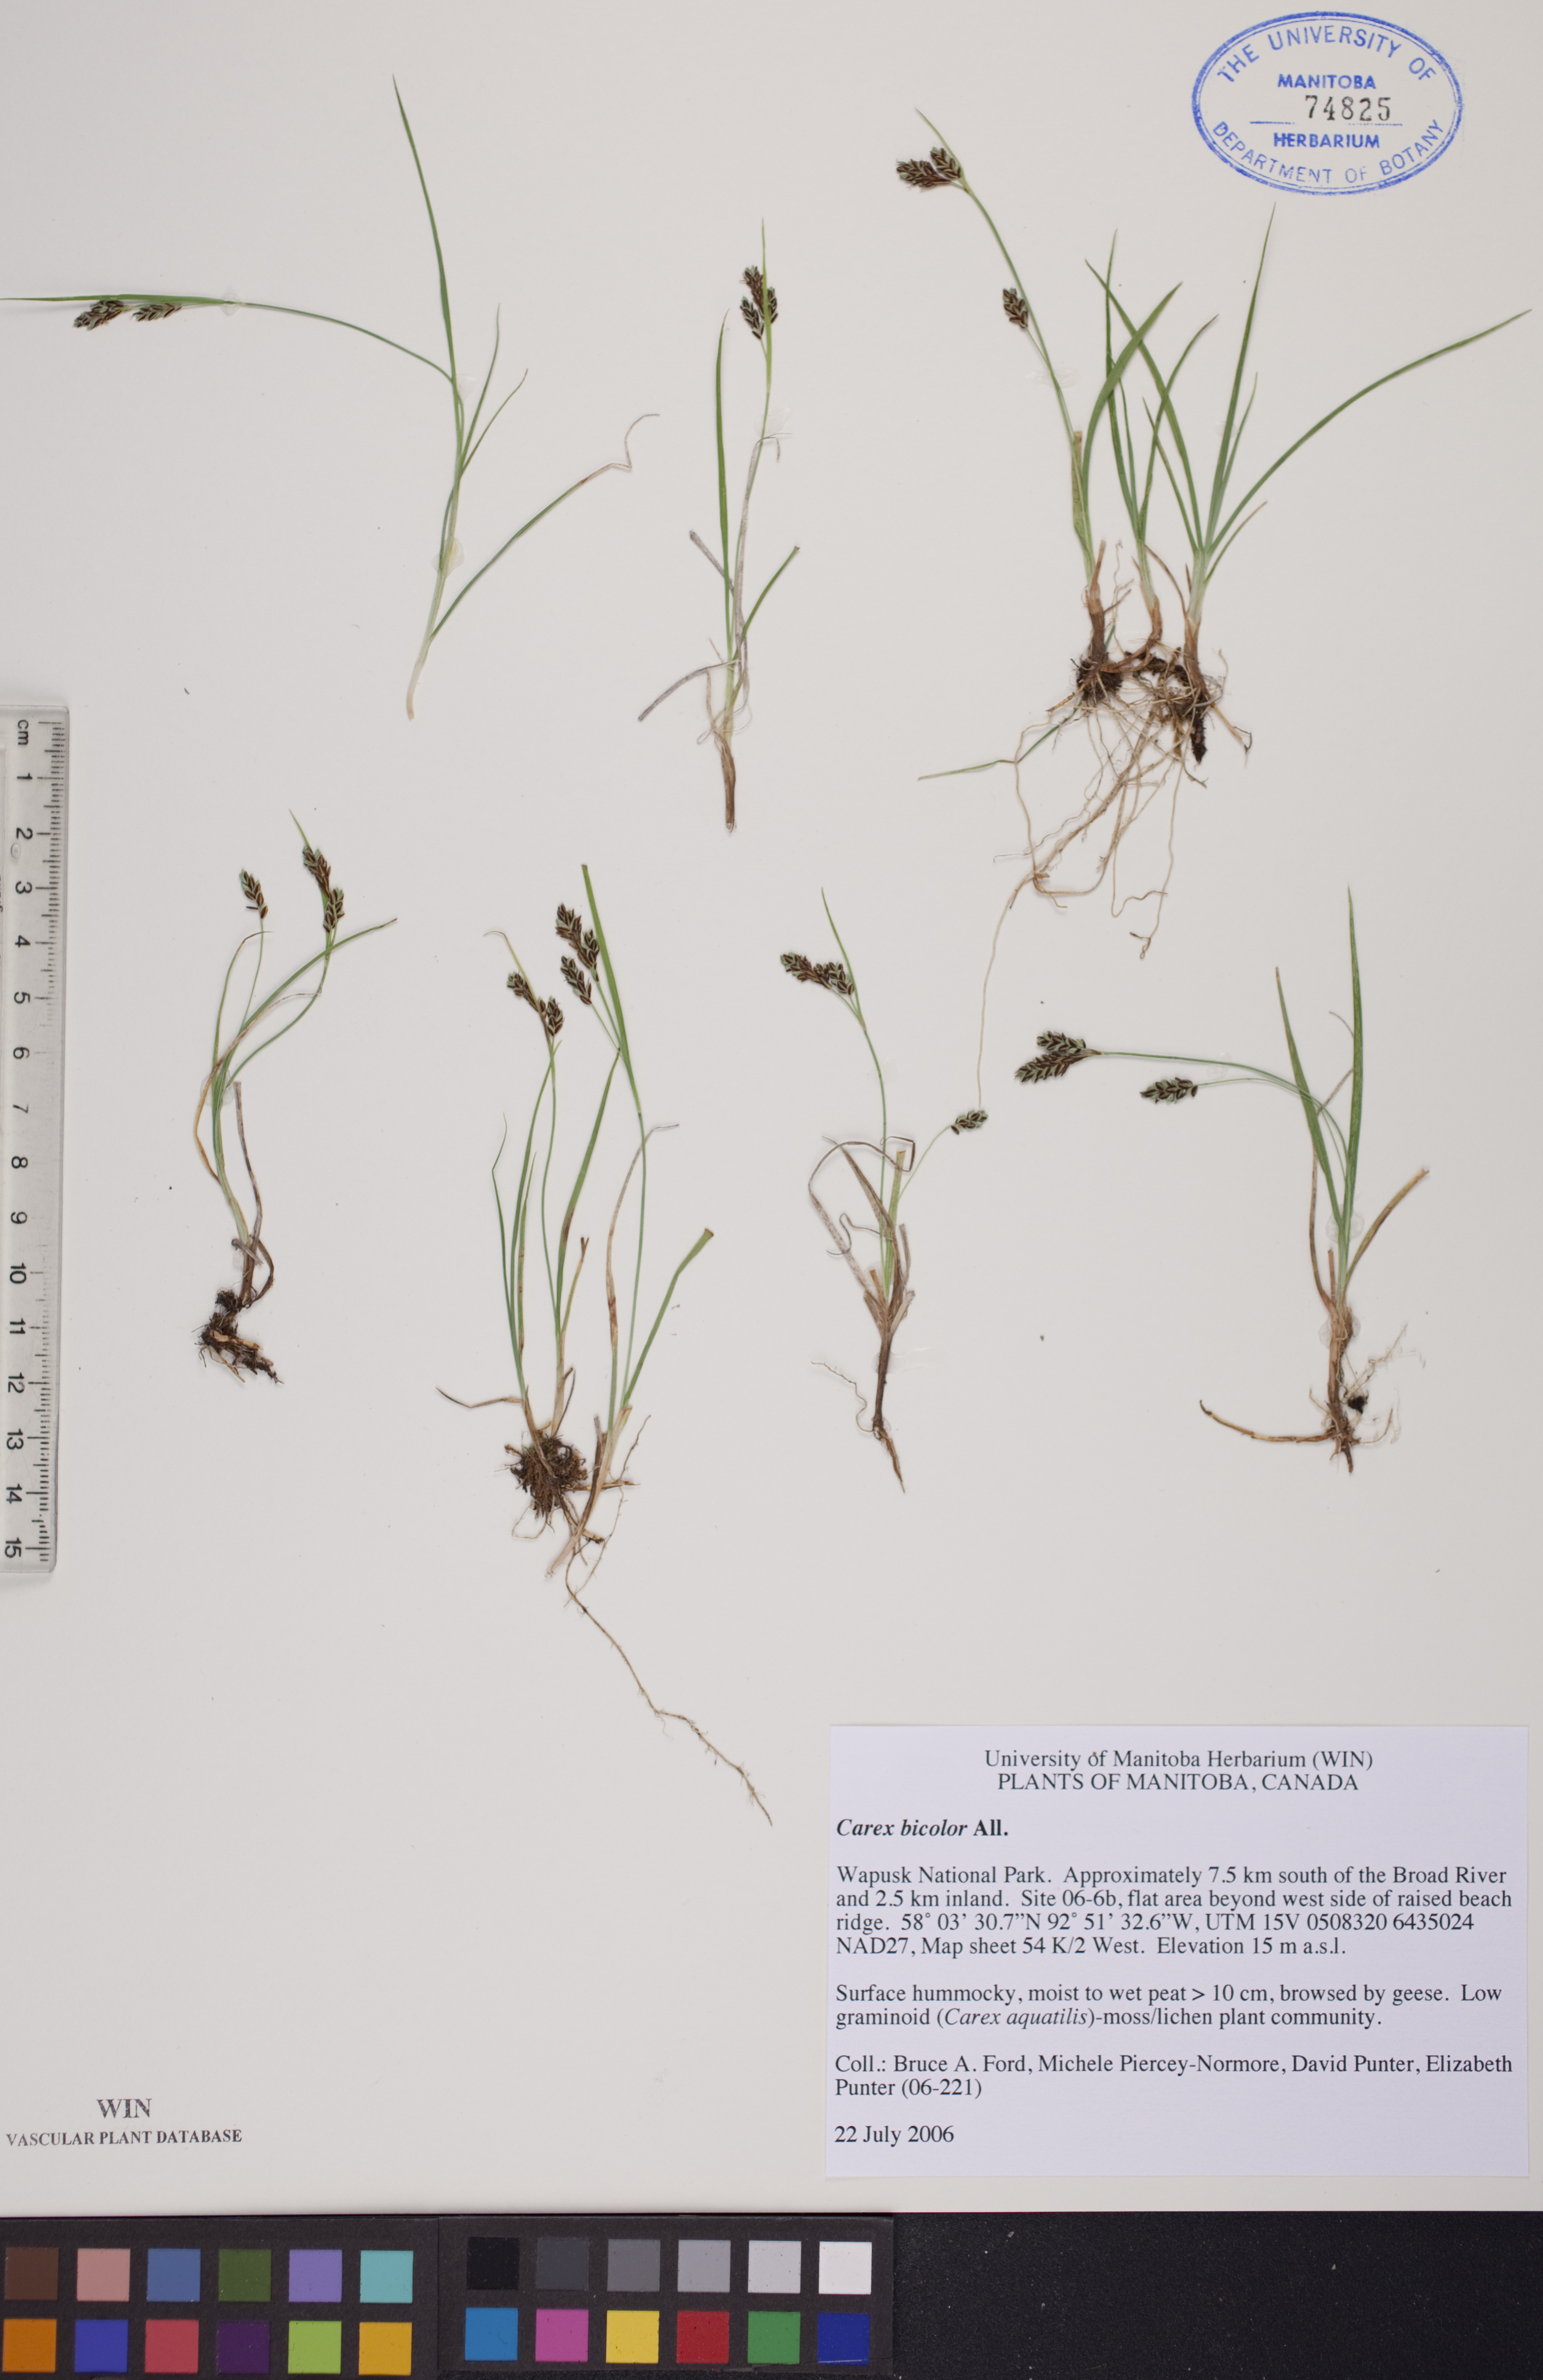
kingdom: Plantae
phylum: Tracheophyta
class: Liliopsida
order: Poales
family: Cyperaceae
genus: Carex
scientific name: Carex bicolor
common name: Bicoloured sedge
